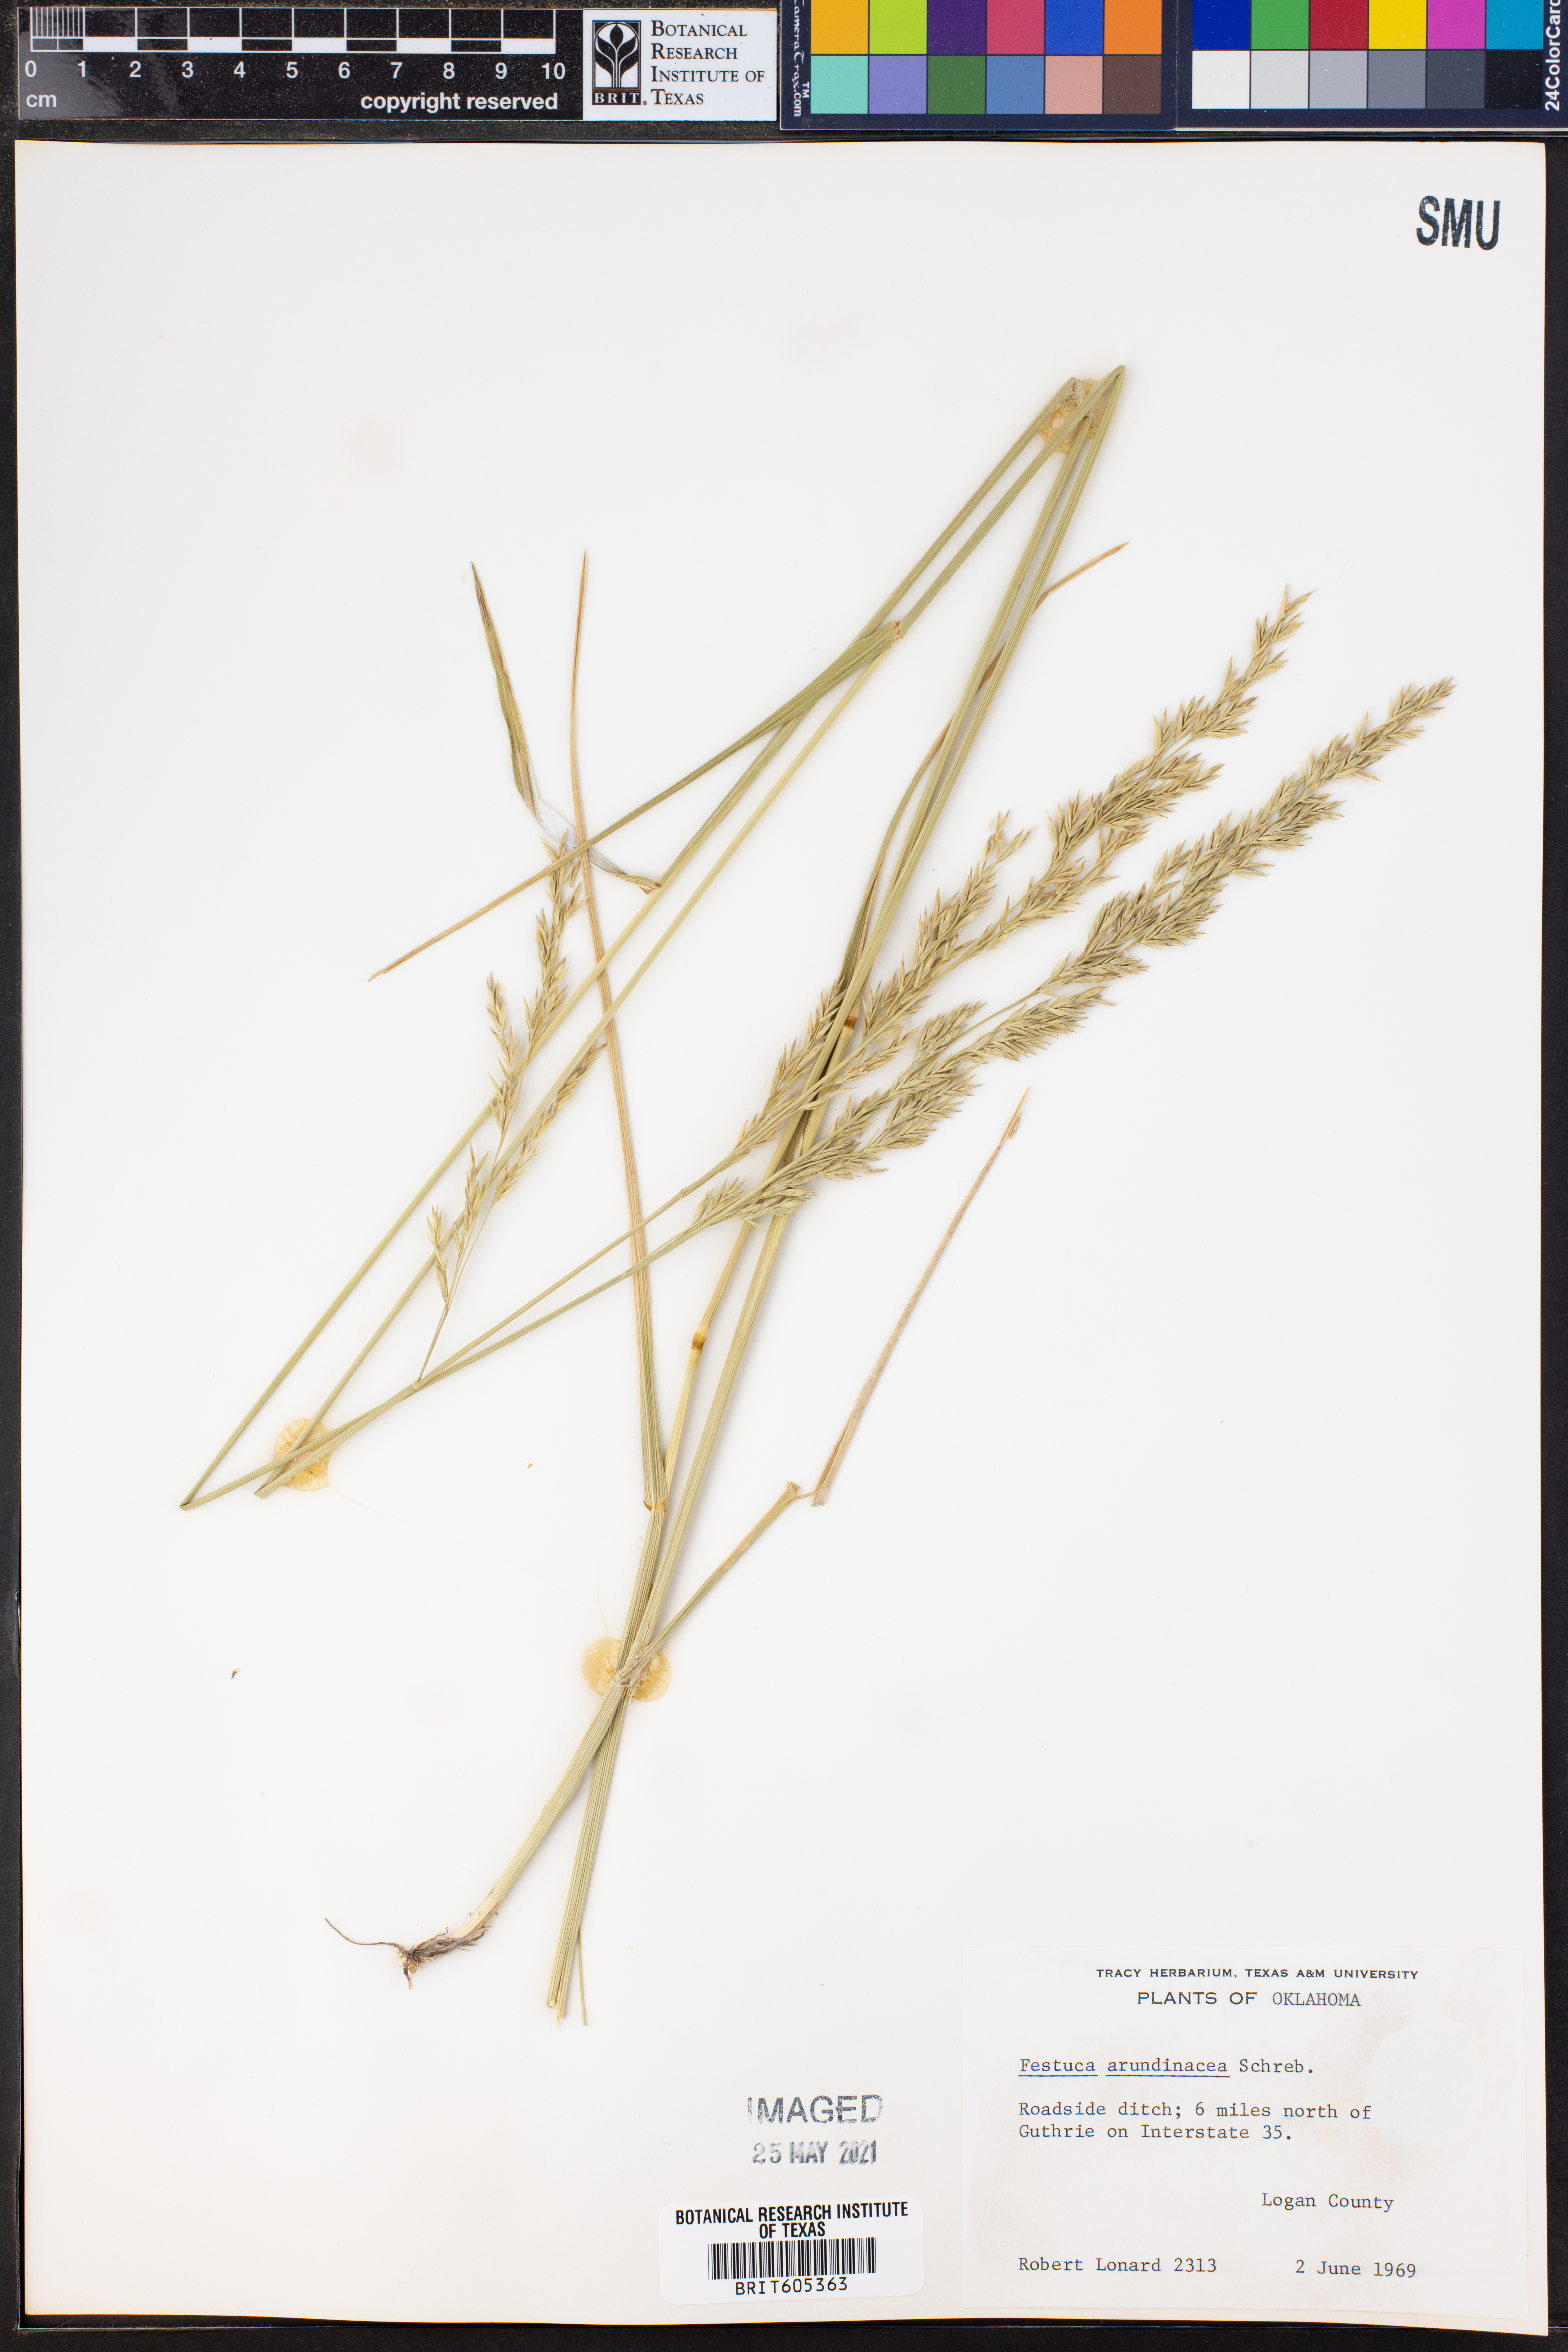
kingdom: Plantae
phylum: Tracheophyta
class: Liliopsida
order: Poales
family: Poaceae
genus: Lolium
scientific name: Lolium arundinaceum
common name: Reed fescue
